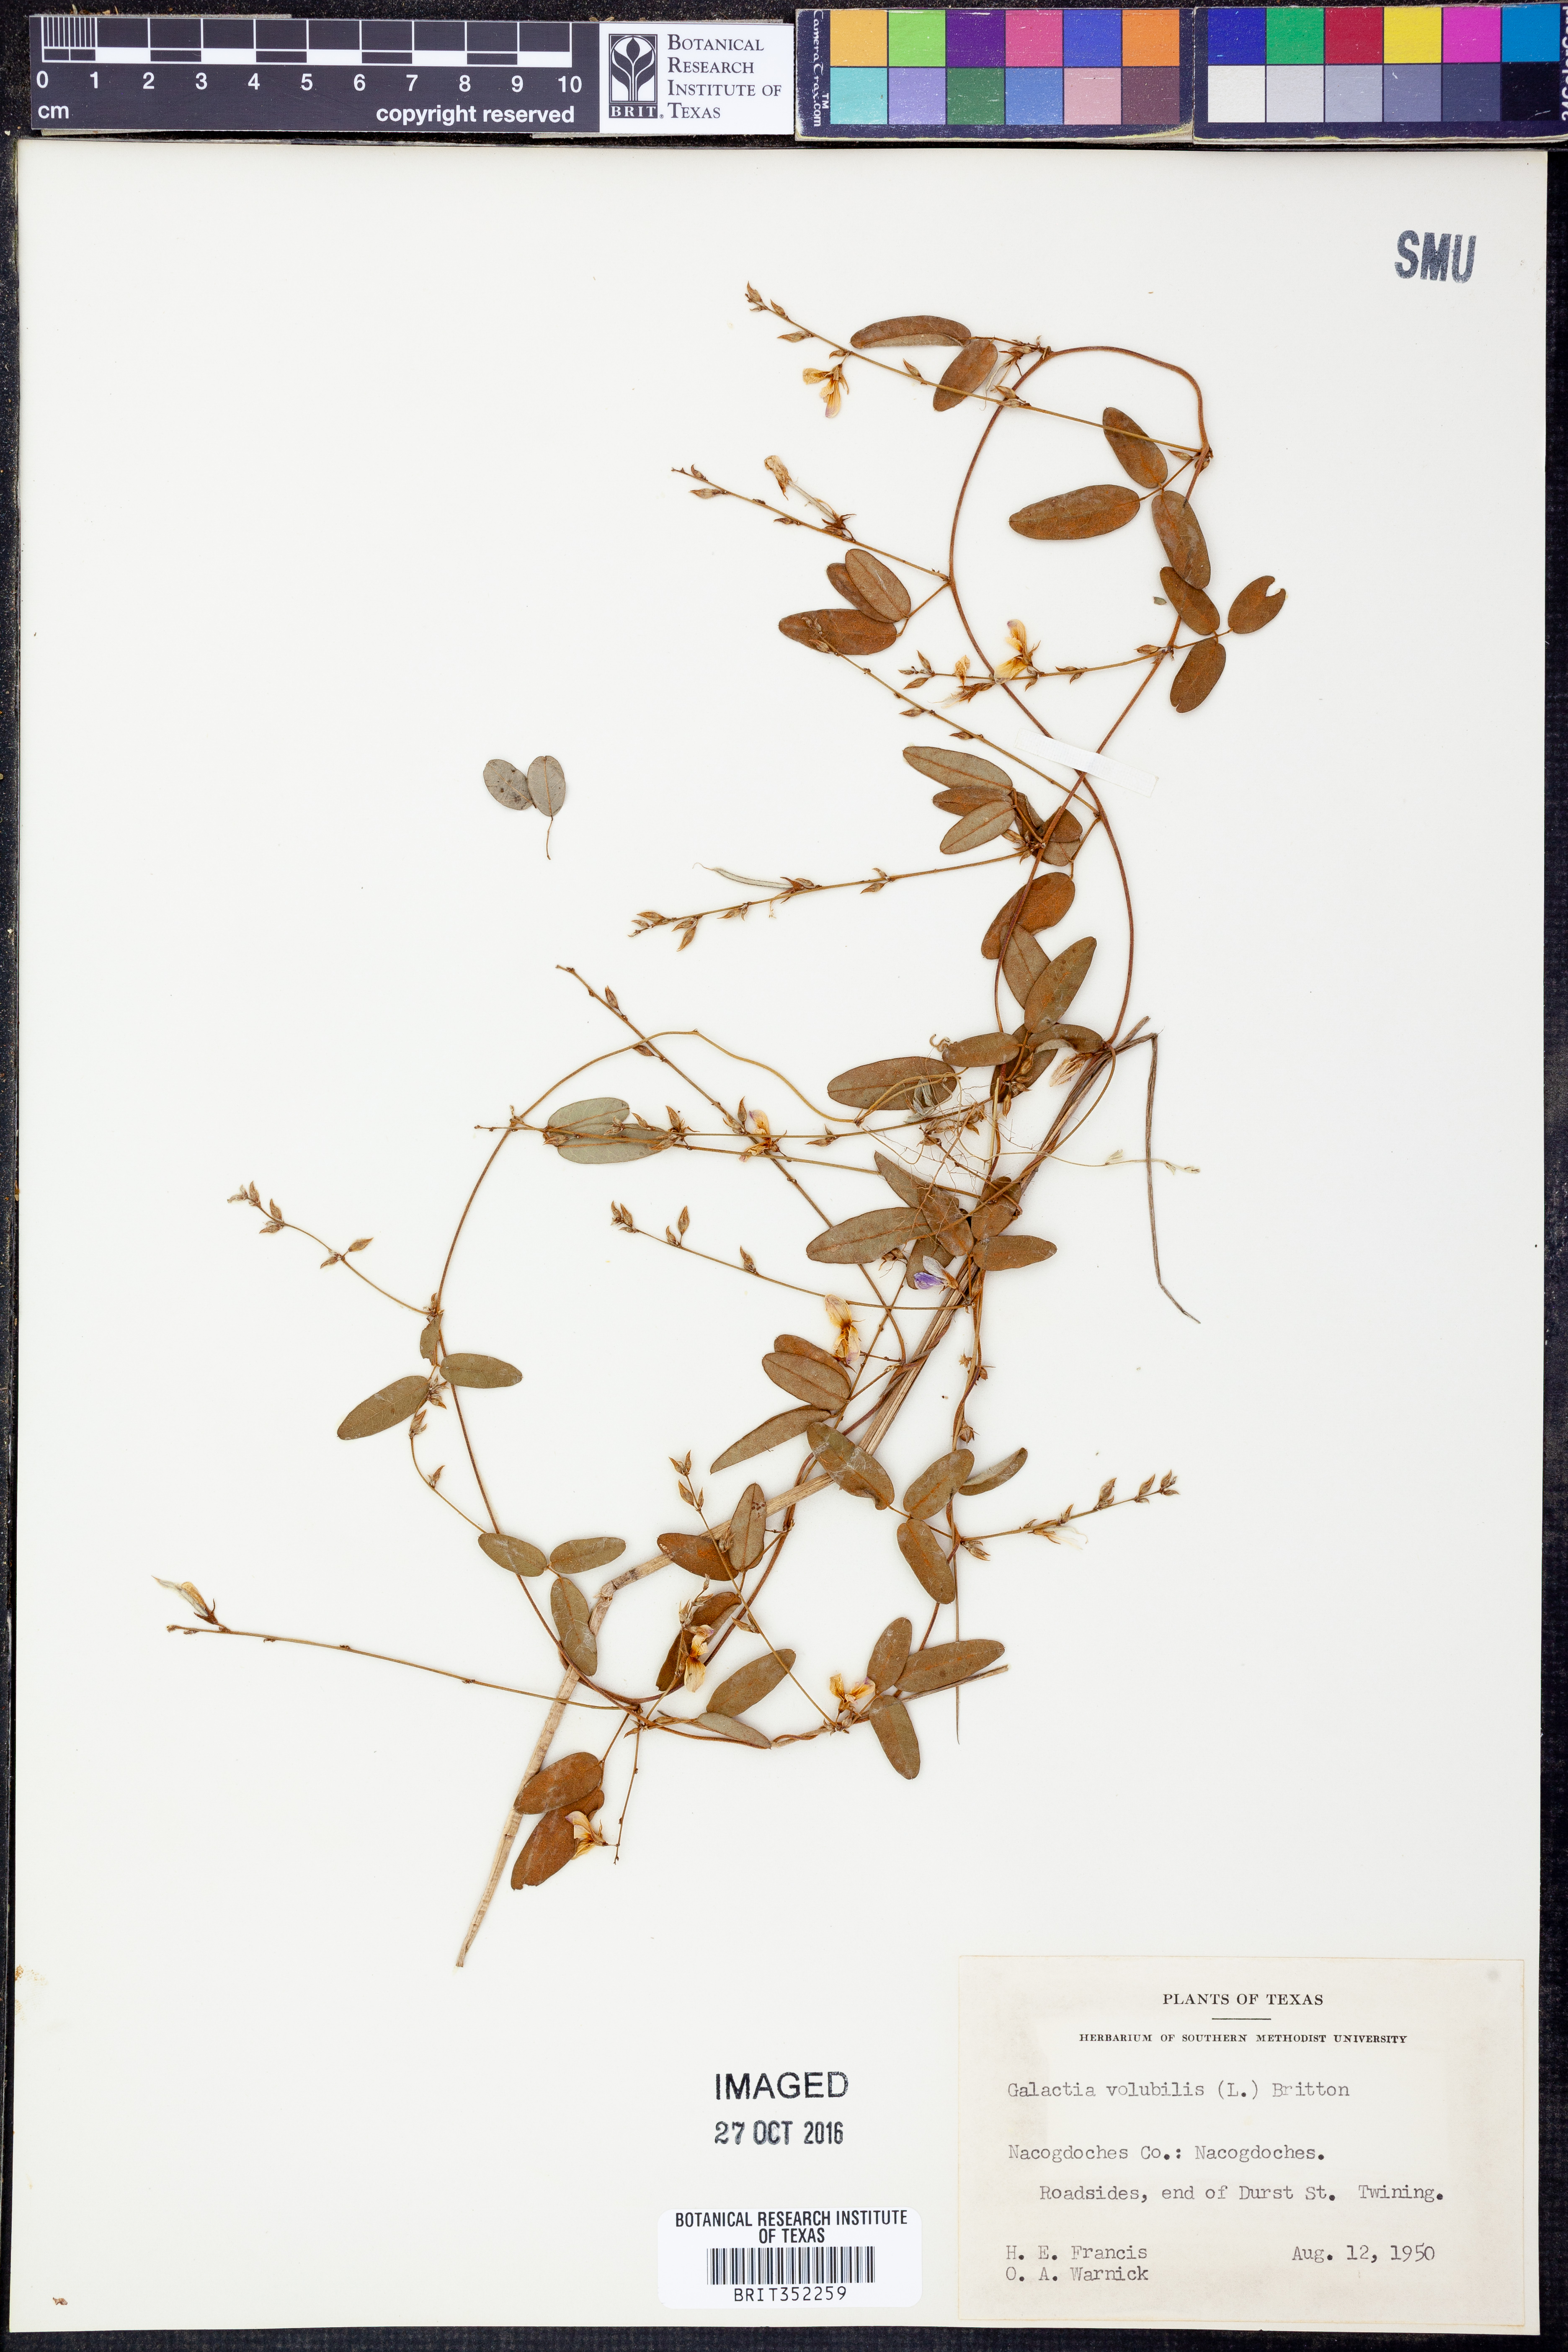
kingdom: Plantae
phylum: Tracheophyta
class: Magnoliopsida
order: Fabales
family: Fabaceae
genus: Galactia
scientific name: Galactia volubilis
